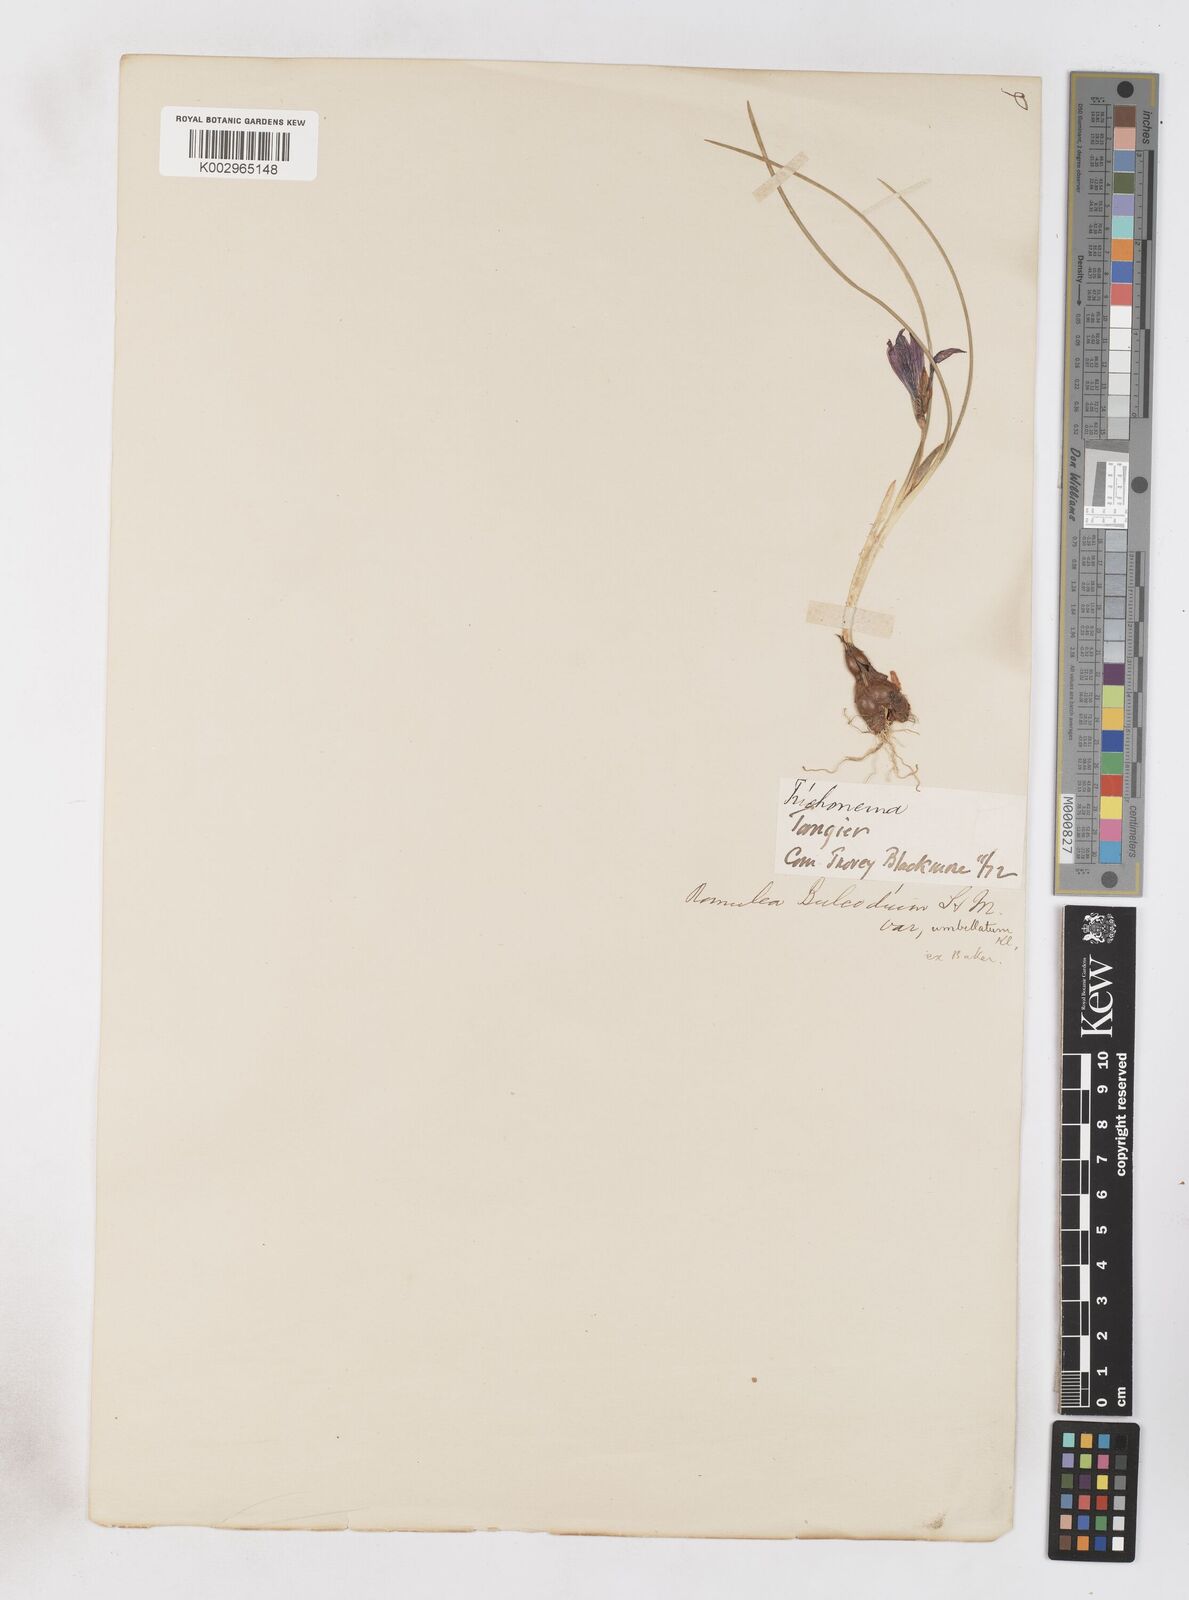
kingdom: Plantae
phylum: Tracheophyta
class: Liliopsida
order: Asparagales
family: Iridaceae
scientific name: Iridaceae
